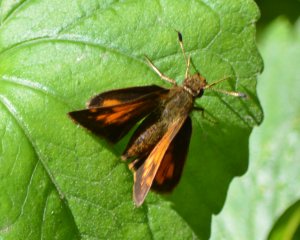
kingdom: Animalia
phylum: Arthropoda
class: Insecta
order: Lepidoptera
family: Hesperiidae
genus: Lon
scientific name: Lon hobomok
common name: Hobomok Skipper
